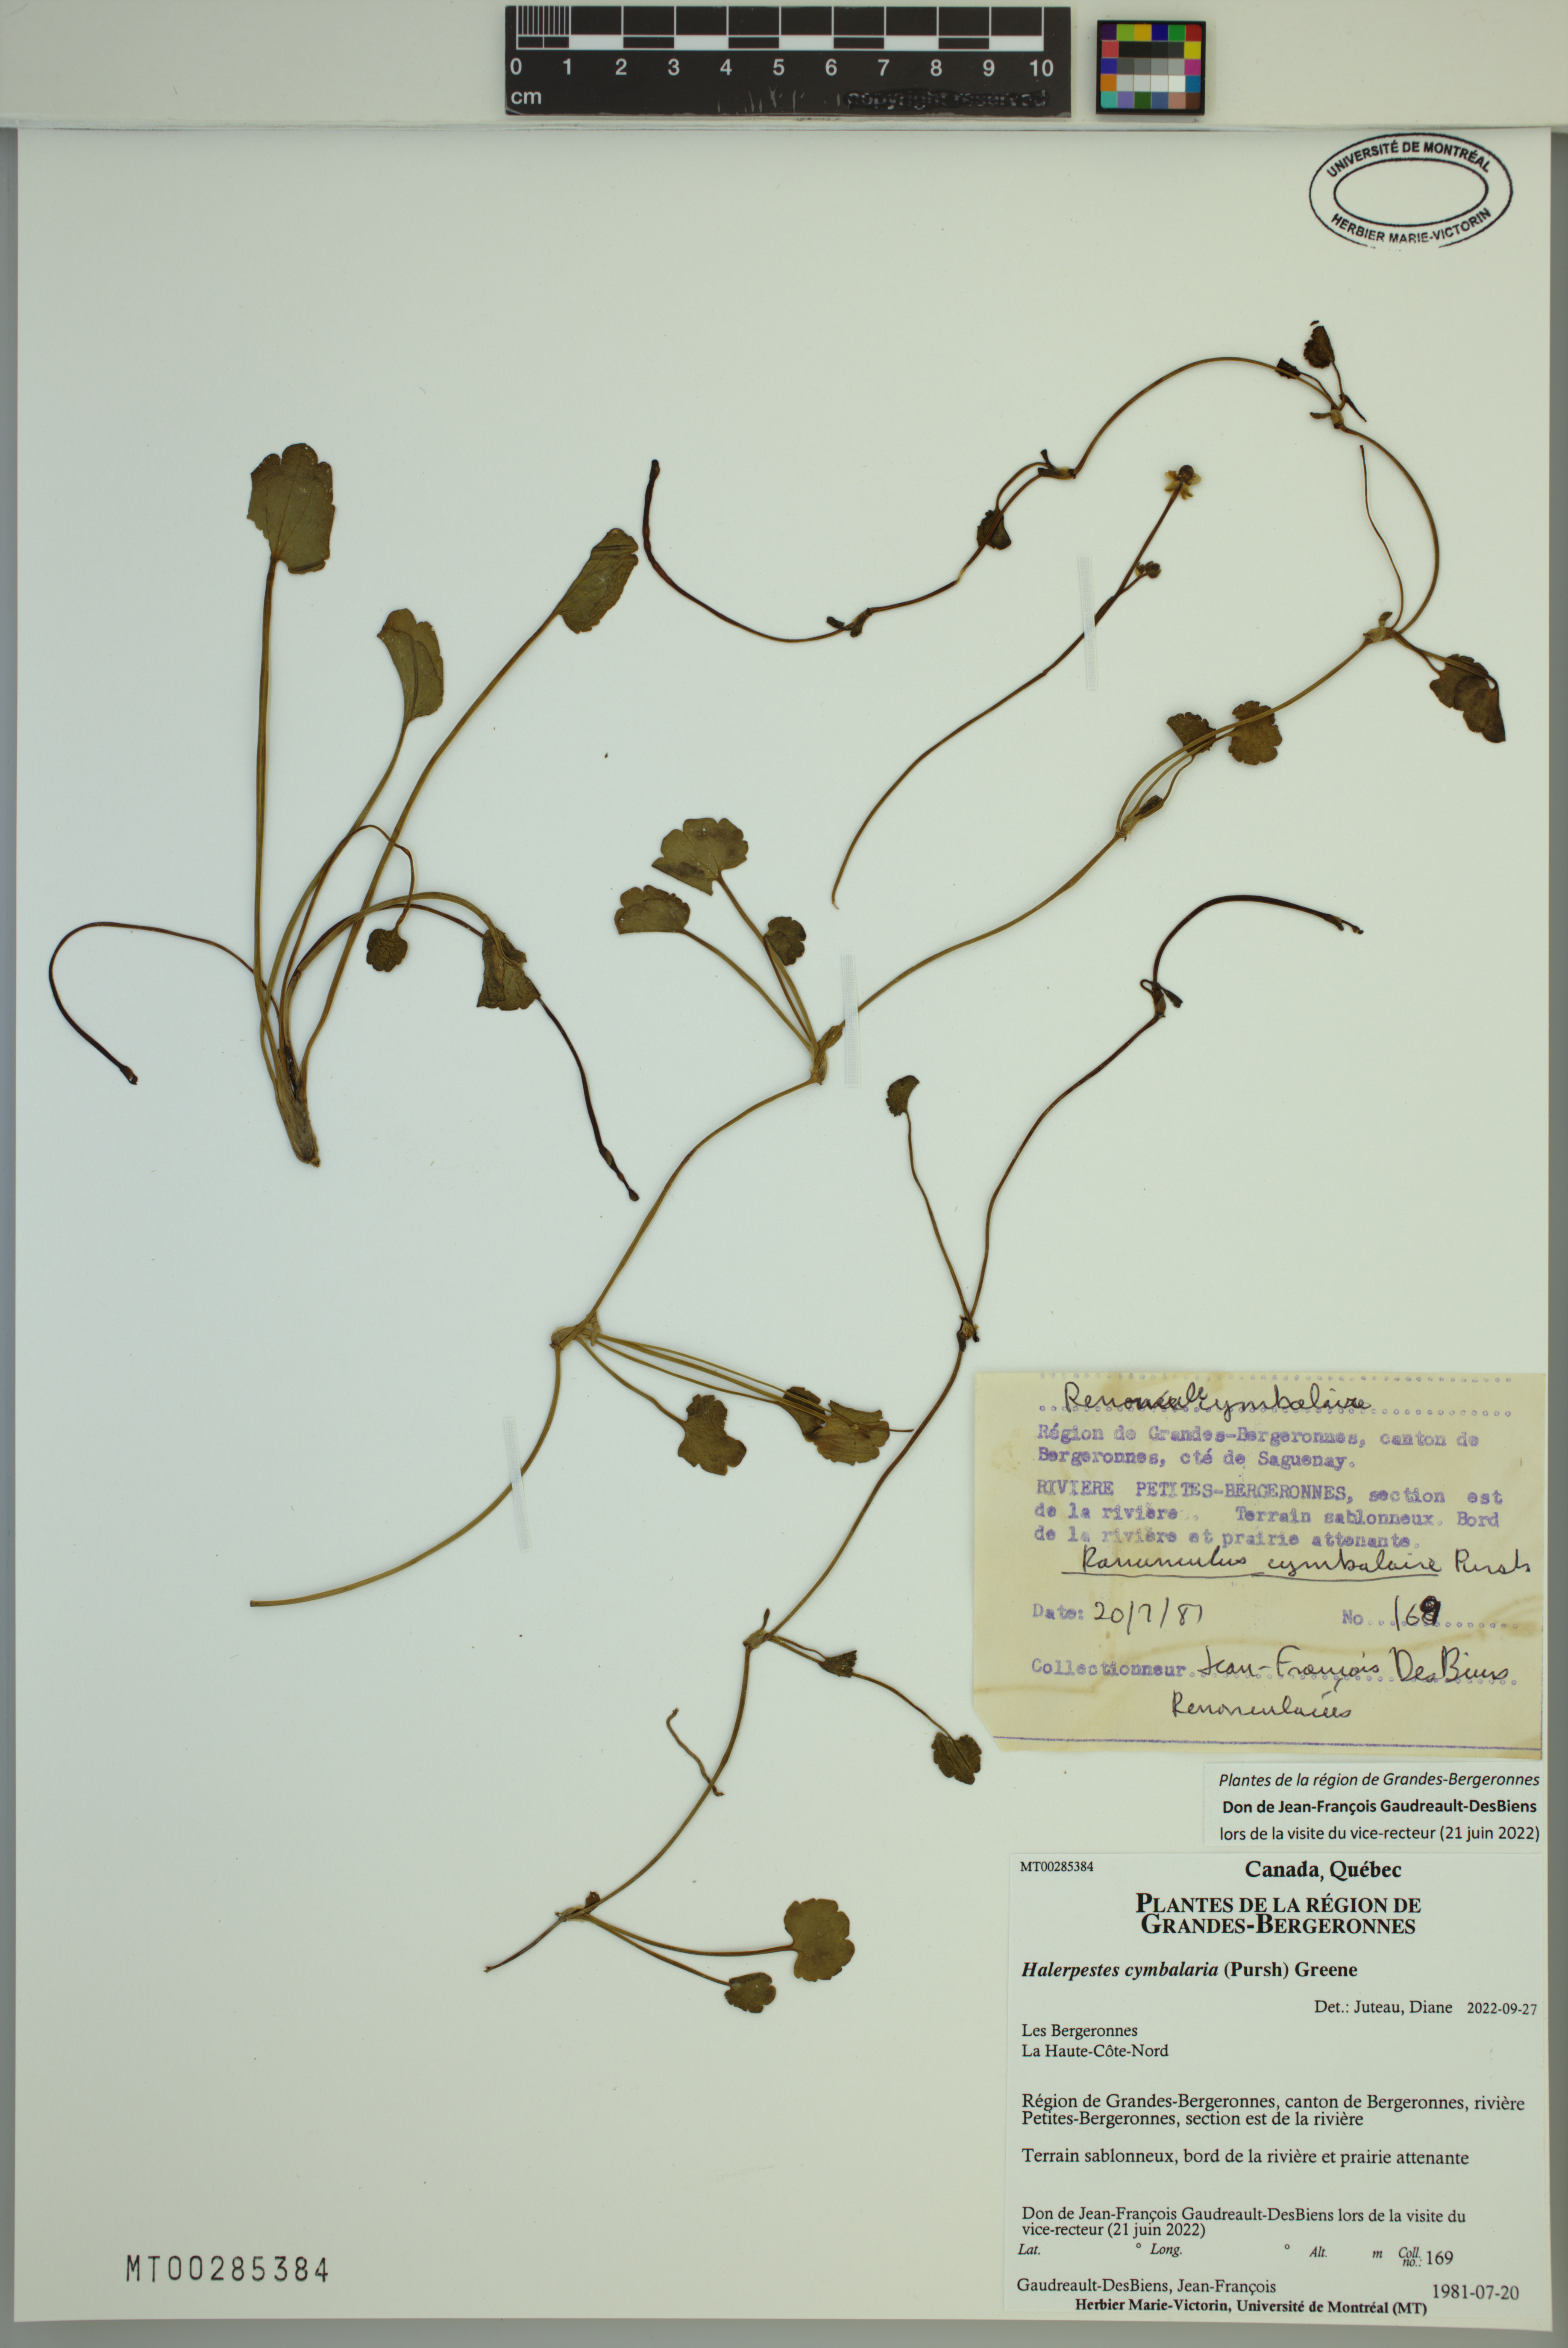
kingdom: Plantae
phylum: Tracheophyta
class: Magnoliopsida
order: Ranunculales
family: Ranunculaceae
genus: Halerpestes
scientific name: Halerpestes cymbalaria
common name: Seaside crowfoot
